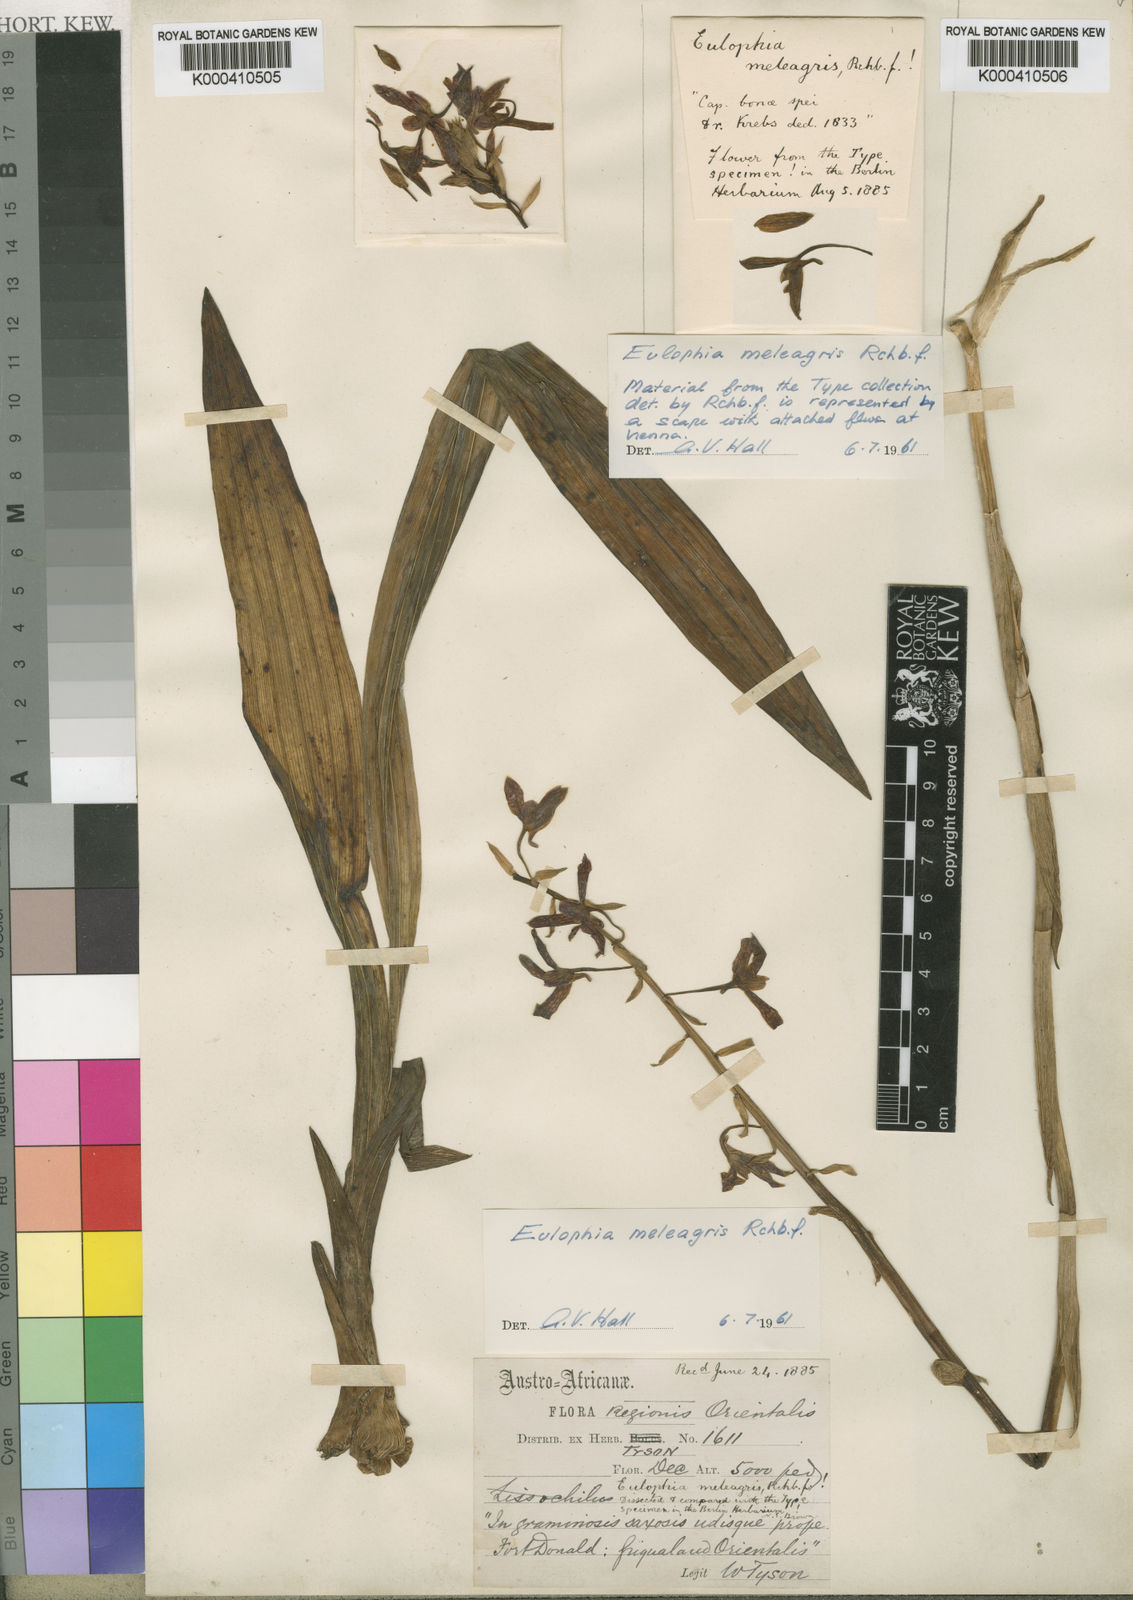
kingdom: Plantae
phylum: Tracheophyta
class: Liliopsida
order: Asparagales
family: Orchidaceae
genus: Eulophia
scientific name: Eulophia meleagris
